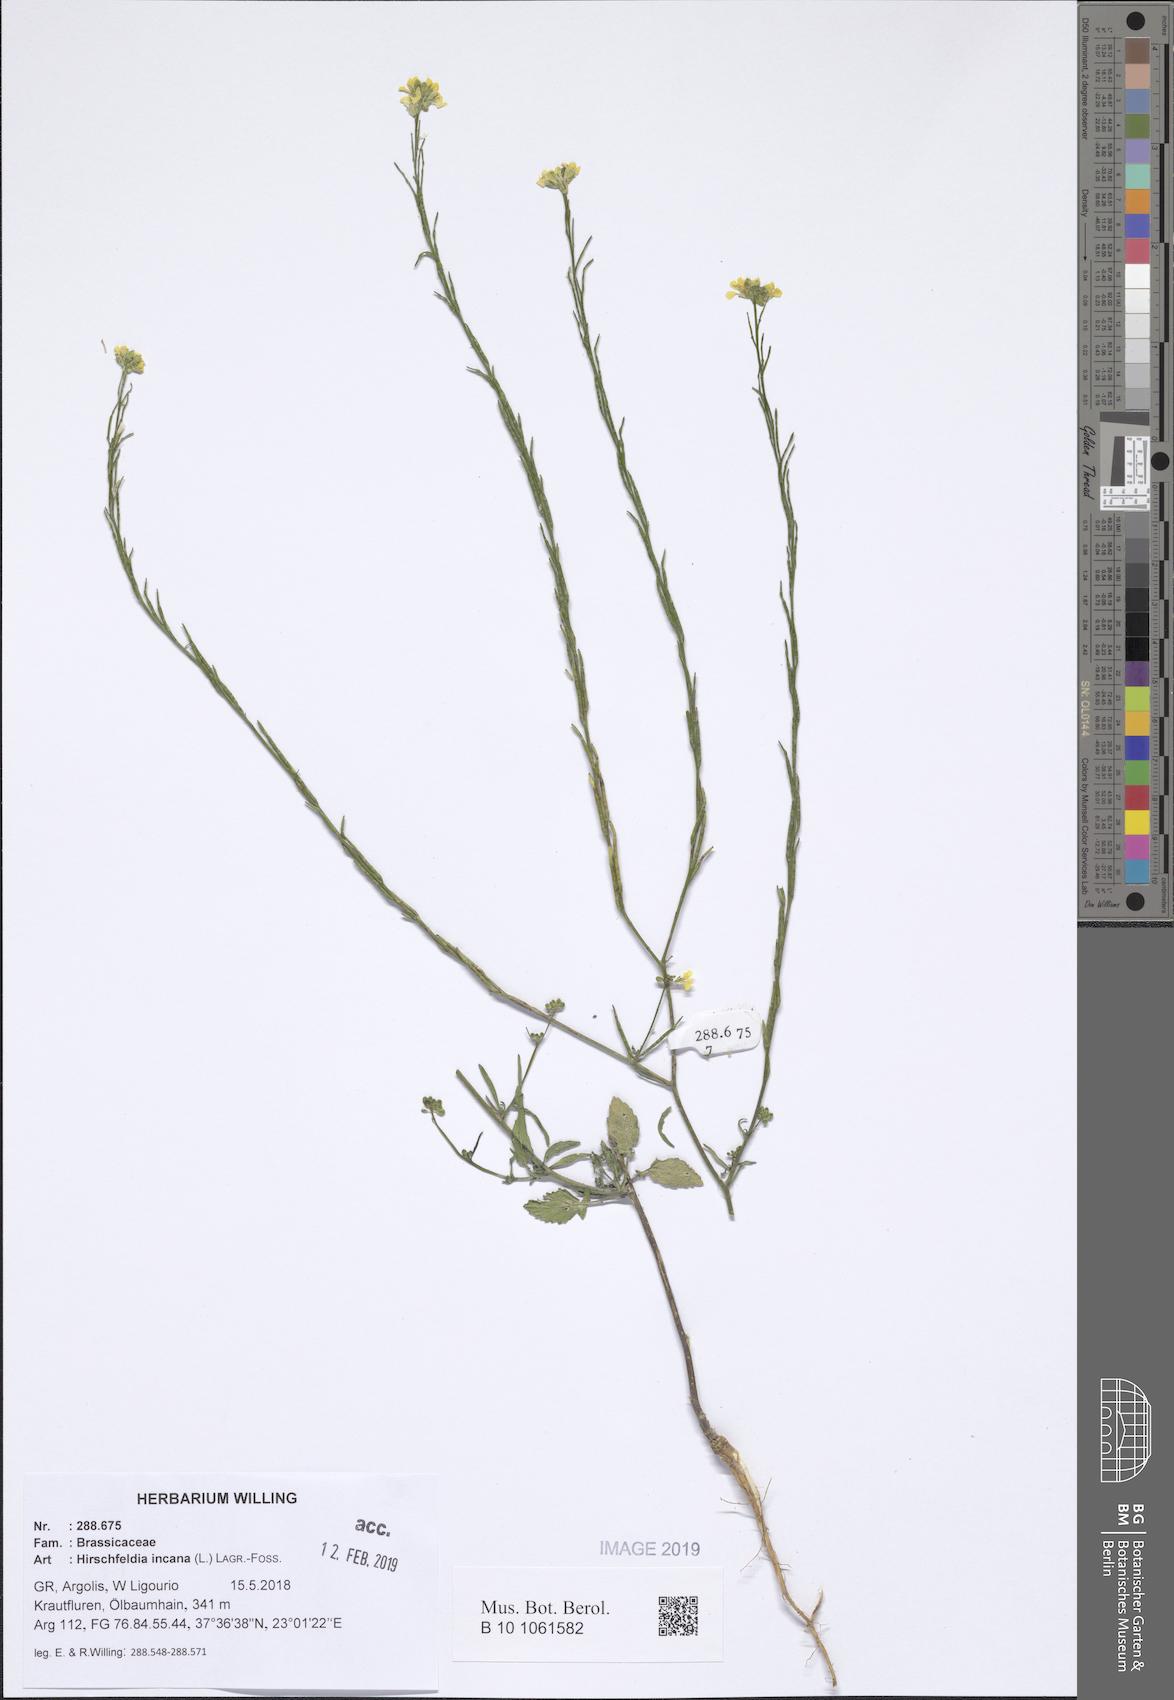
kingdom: Plantae
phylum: Tracheophyta
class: Magnoliopsida
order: Brassicales
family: Brassicaceae
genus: Hirschfeldia
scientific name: Hirschfeldia incana
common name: Hoary mustard
